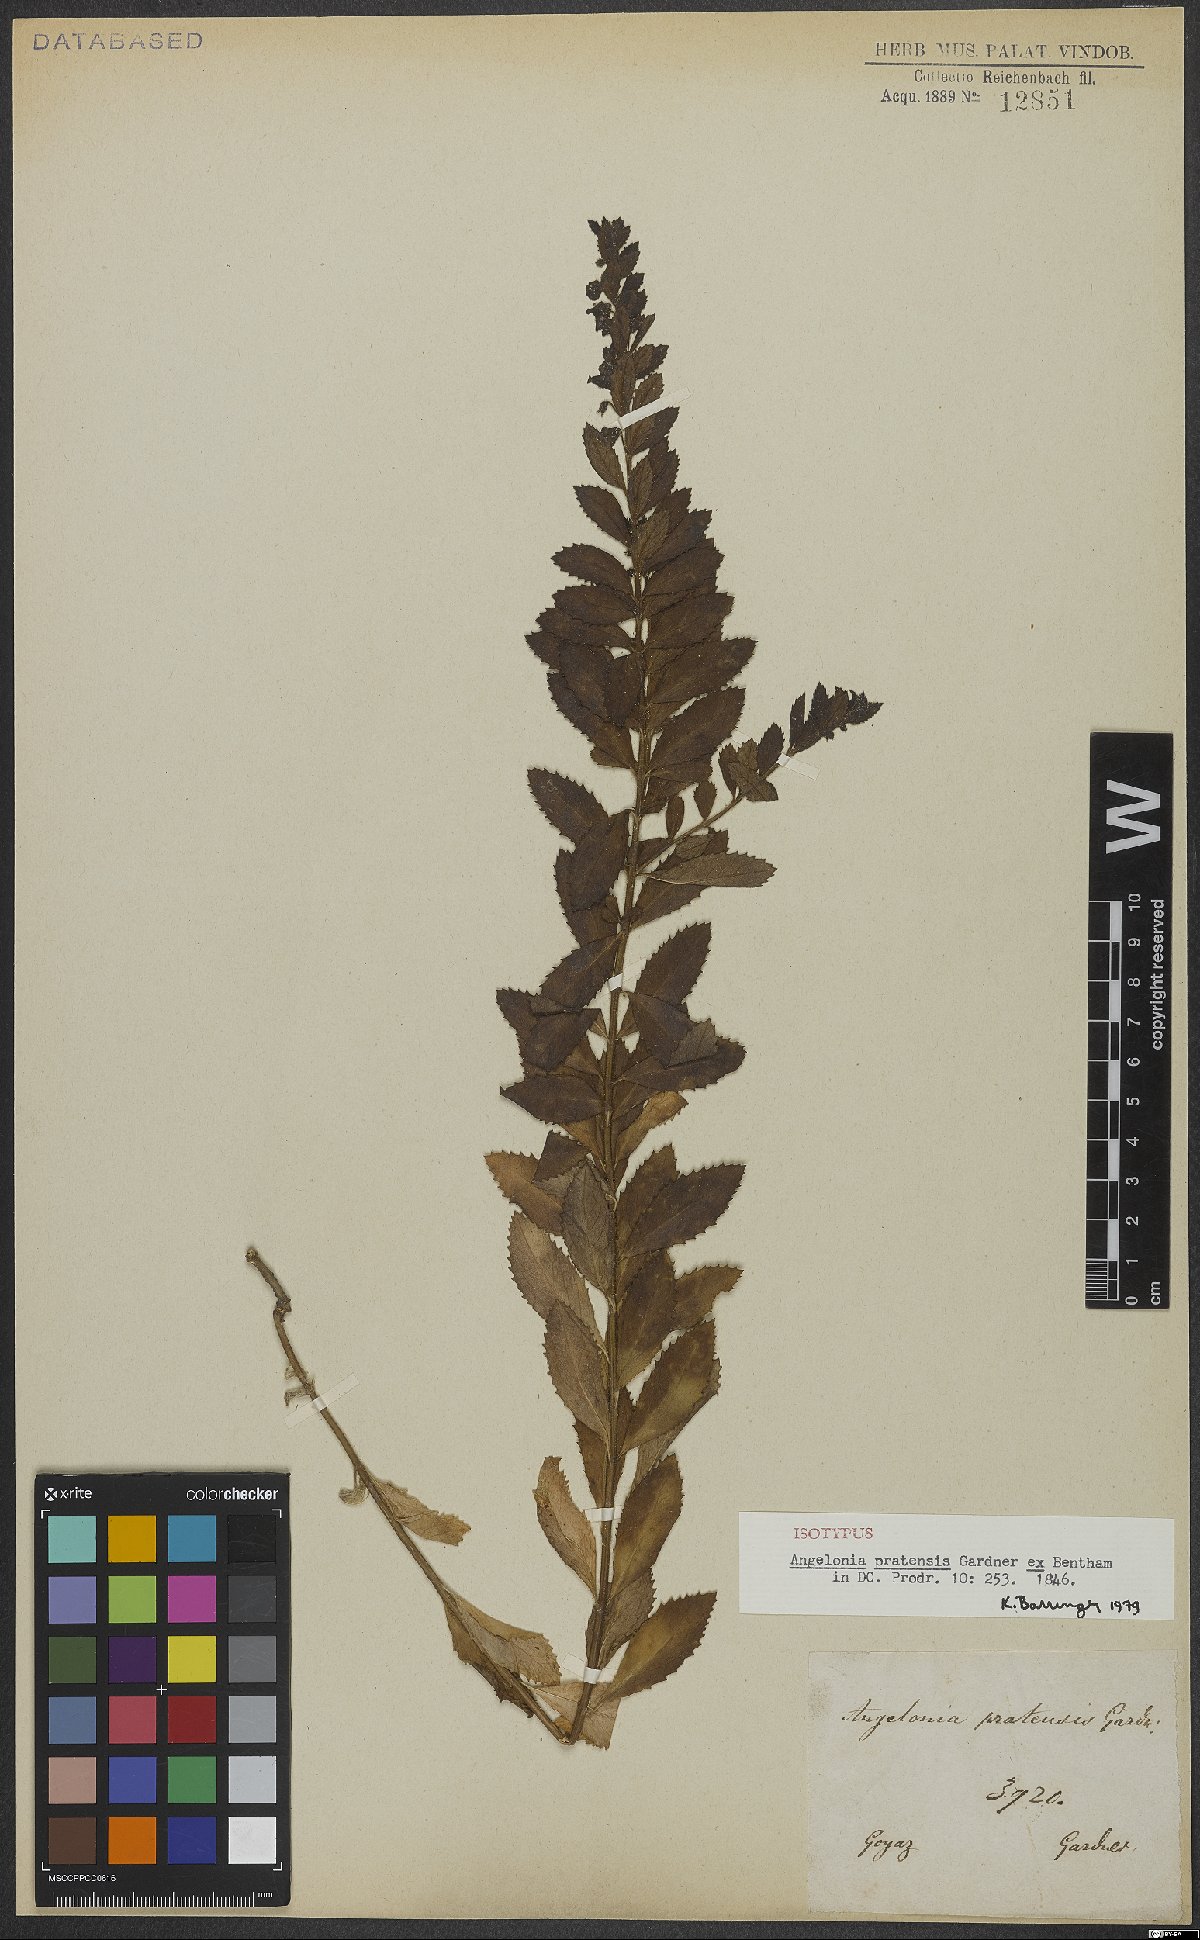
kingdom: Plantae
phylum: Tracheophyta
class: Magnoliopsida
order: Lamiales
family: Plantaginaceae
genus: Angelonia
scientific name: Angelonia pratensis
